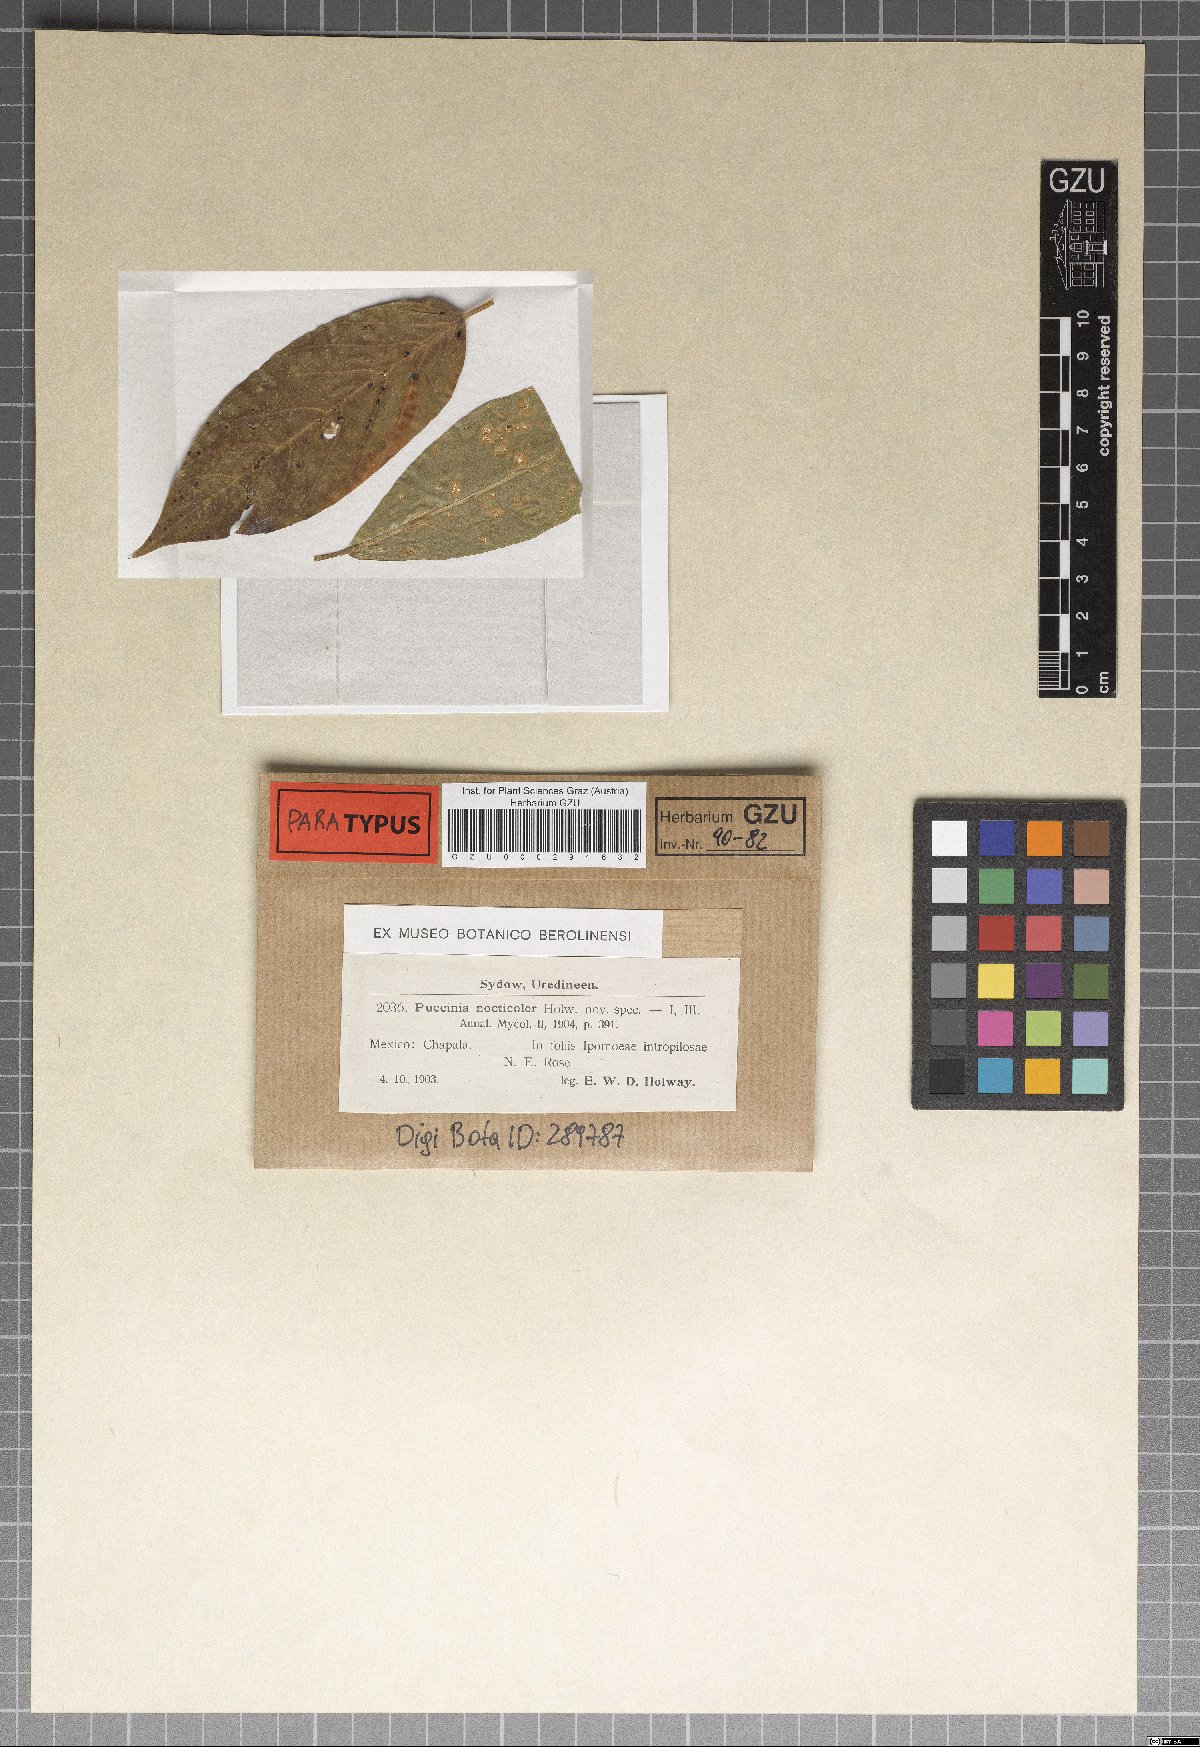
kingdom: Fungi
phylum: Basidiomycota
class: Pucciniomycetes
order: Pucciniales
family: Pucciniaceae
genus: Puccinia
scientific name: Puccinia nocticolor
